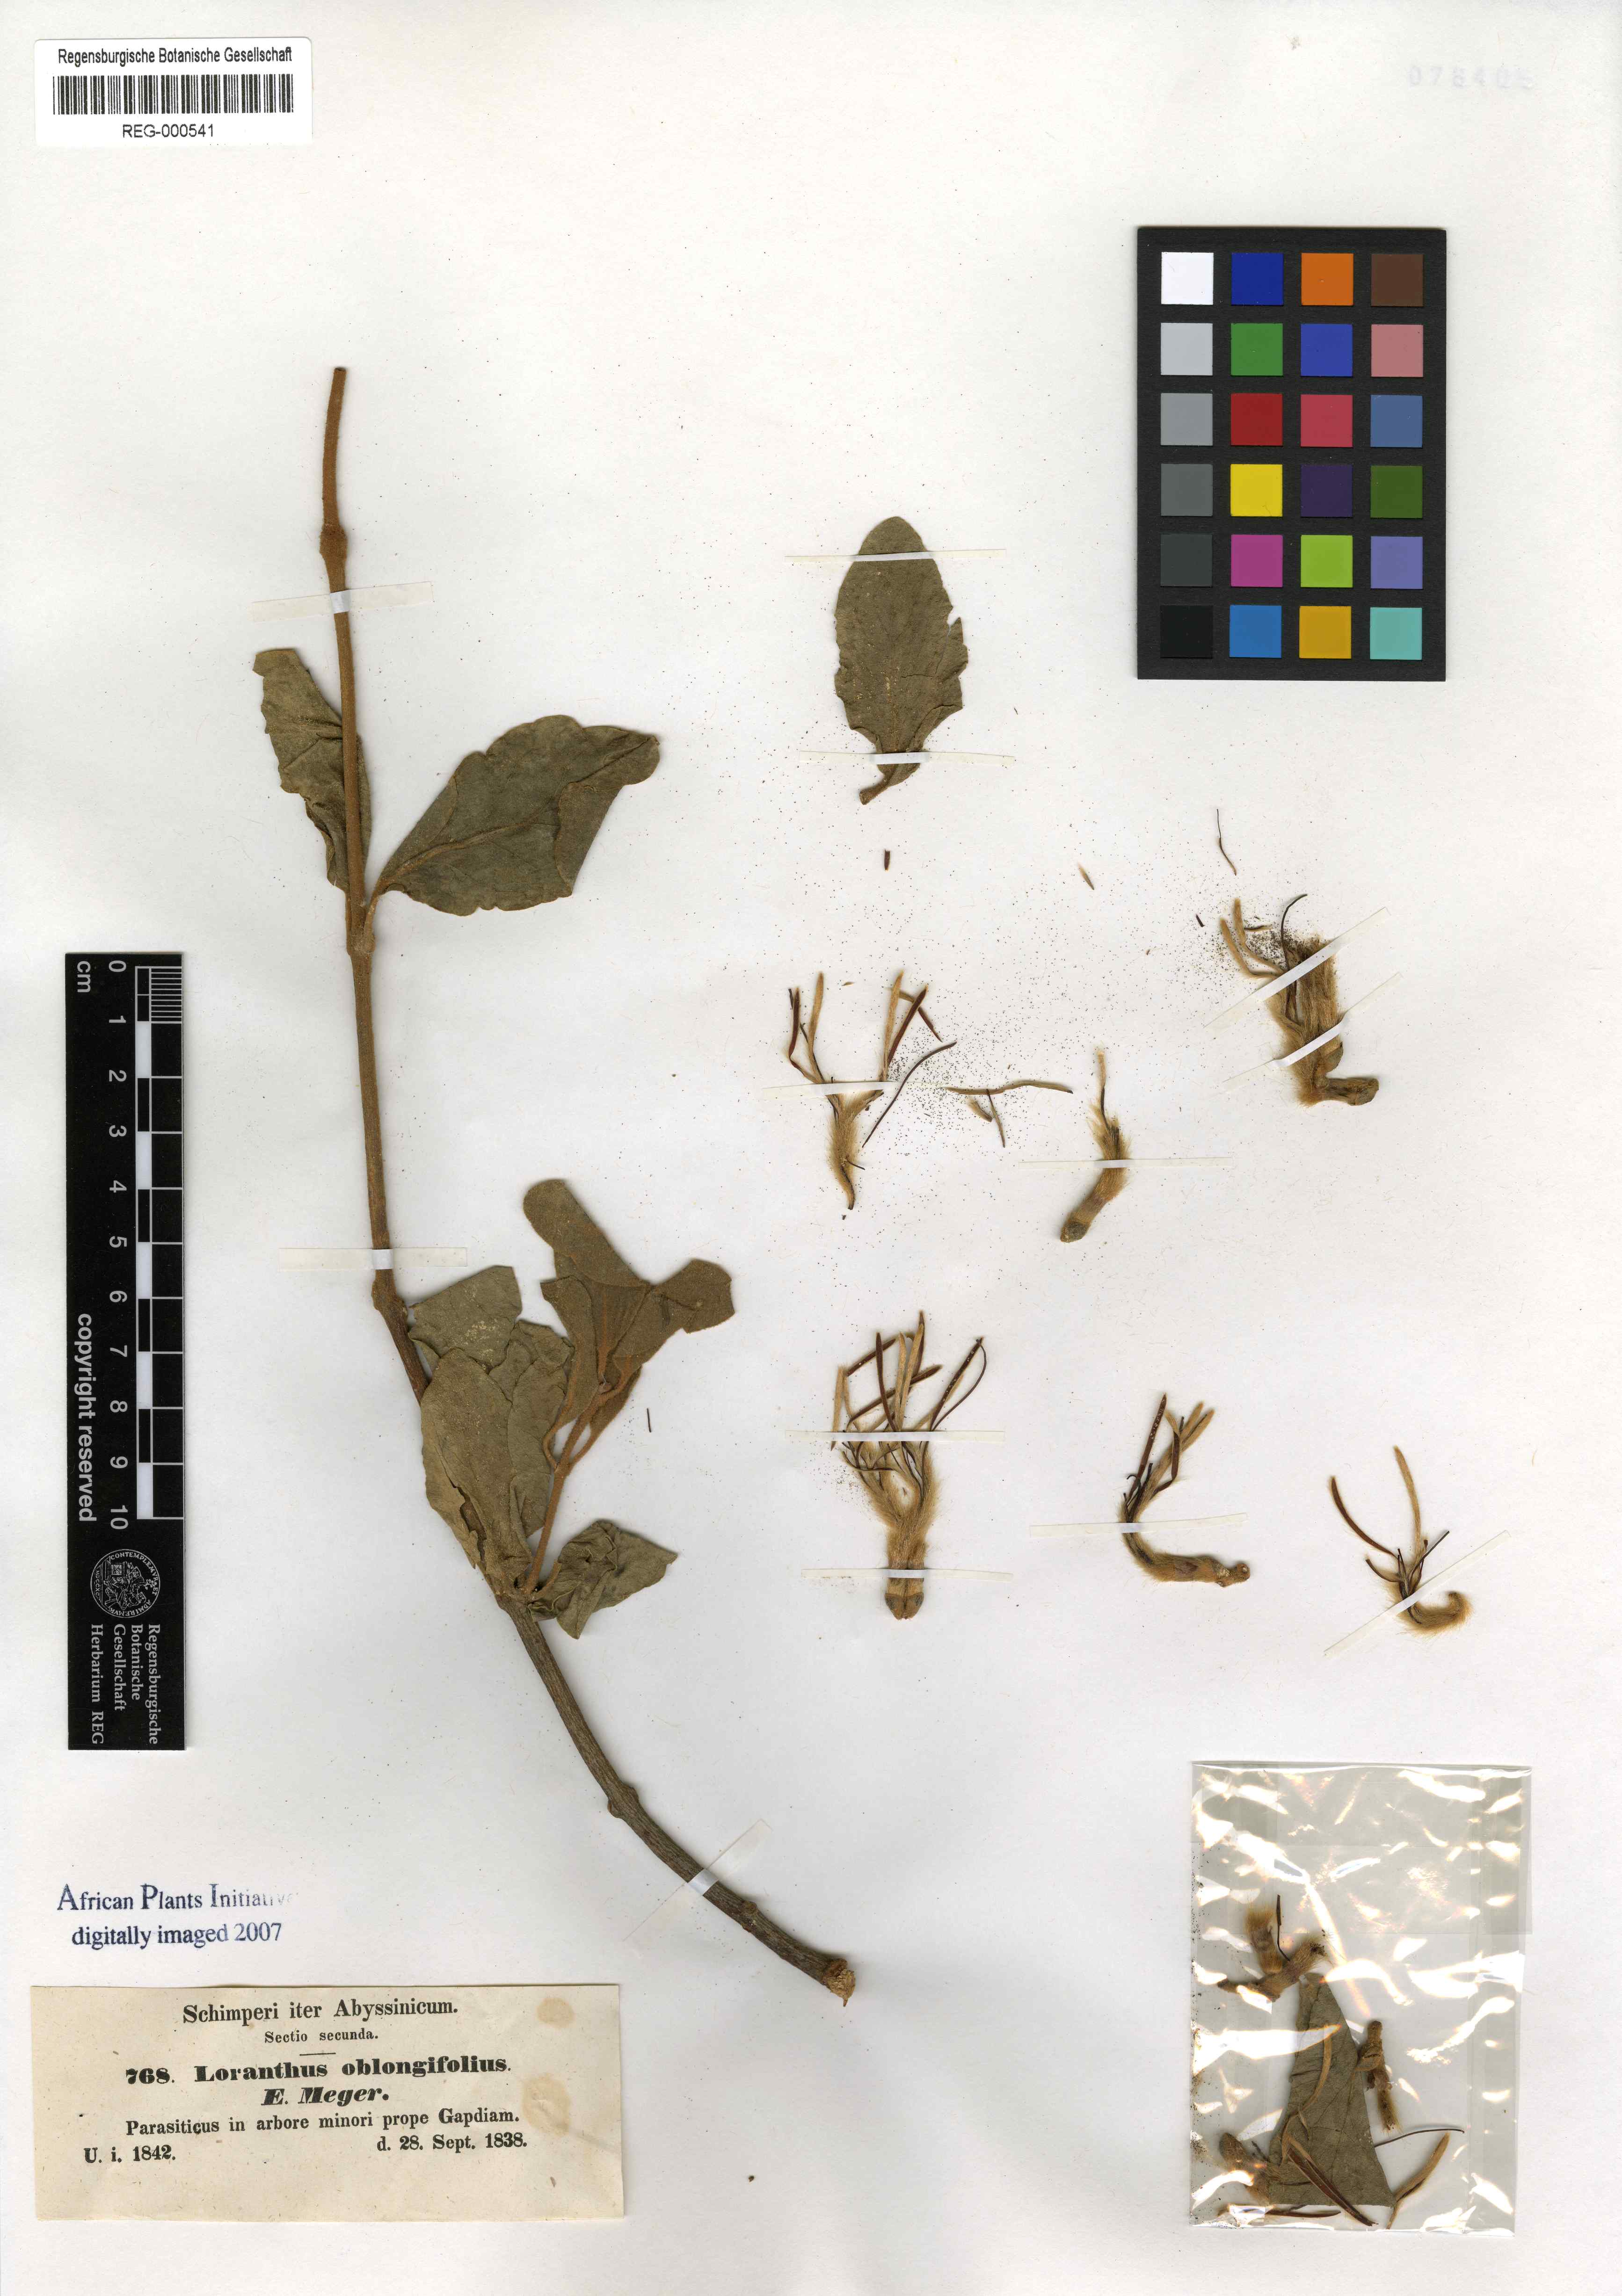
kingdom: Plantae
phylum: Tracheophyta
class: Magnoliopsida
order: Santalales
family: Loranthaceae
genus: Tapinanthus
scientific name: Tapinanthus oleifolius
